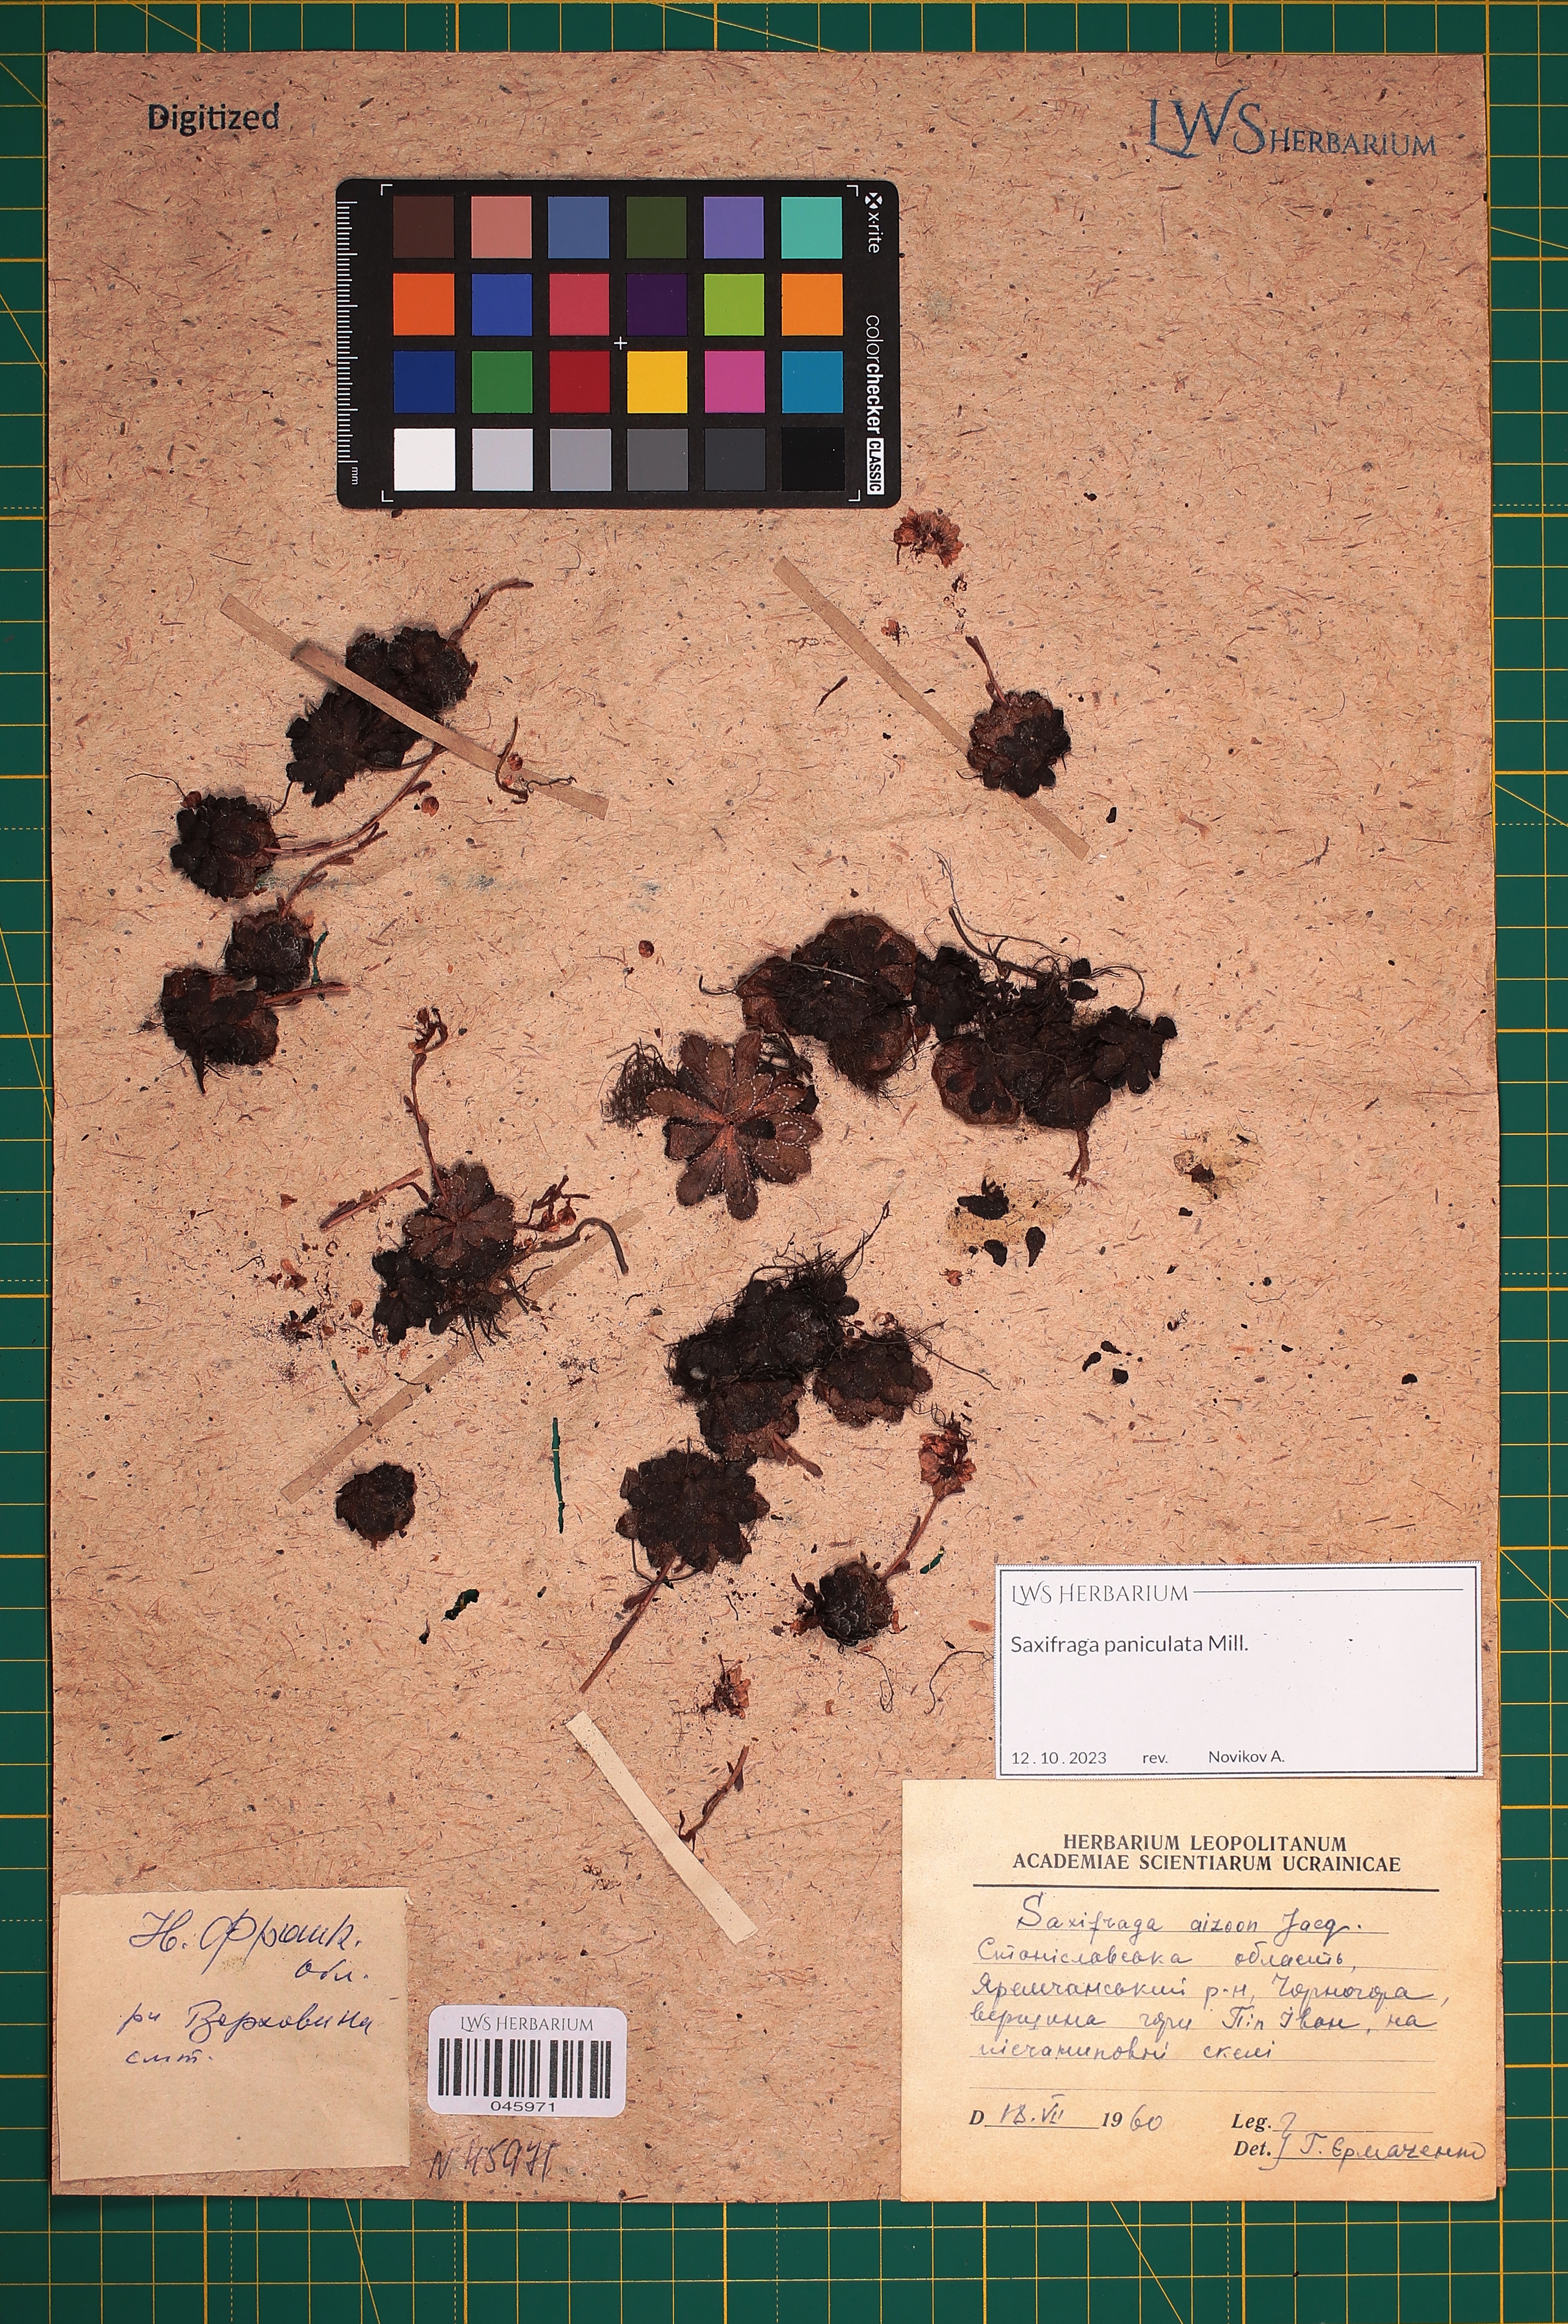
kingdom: Plantae
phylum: Tracheophyta
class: Magnoliopsida
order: Saxifragales
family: Saxifragaceae
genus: Saxifraga
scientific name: Saxifraga paniculata
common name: Livelong saxifrage
